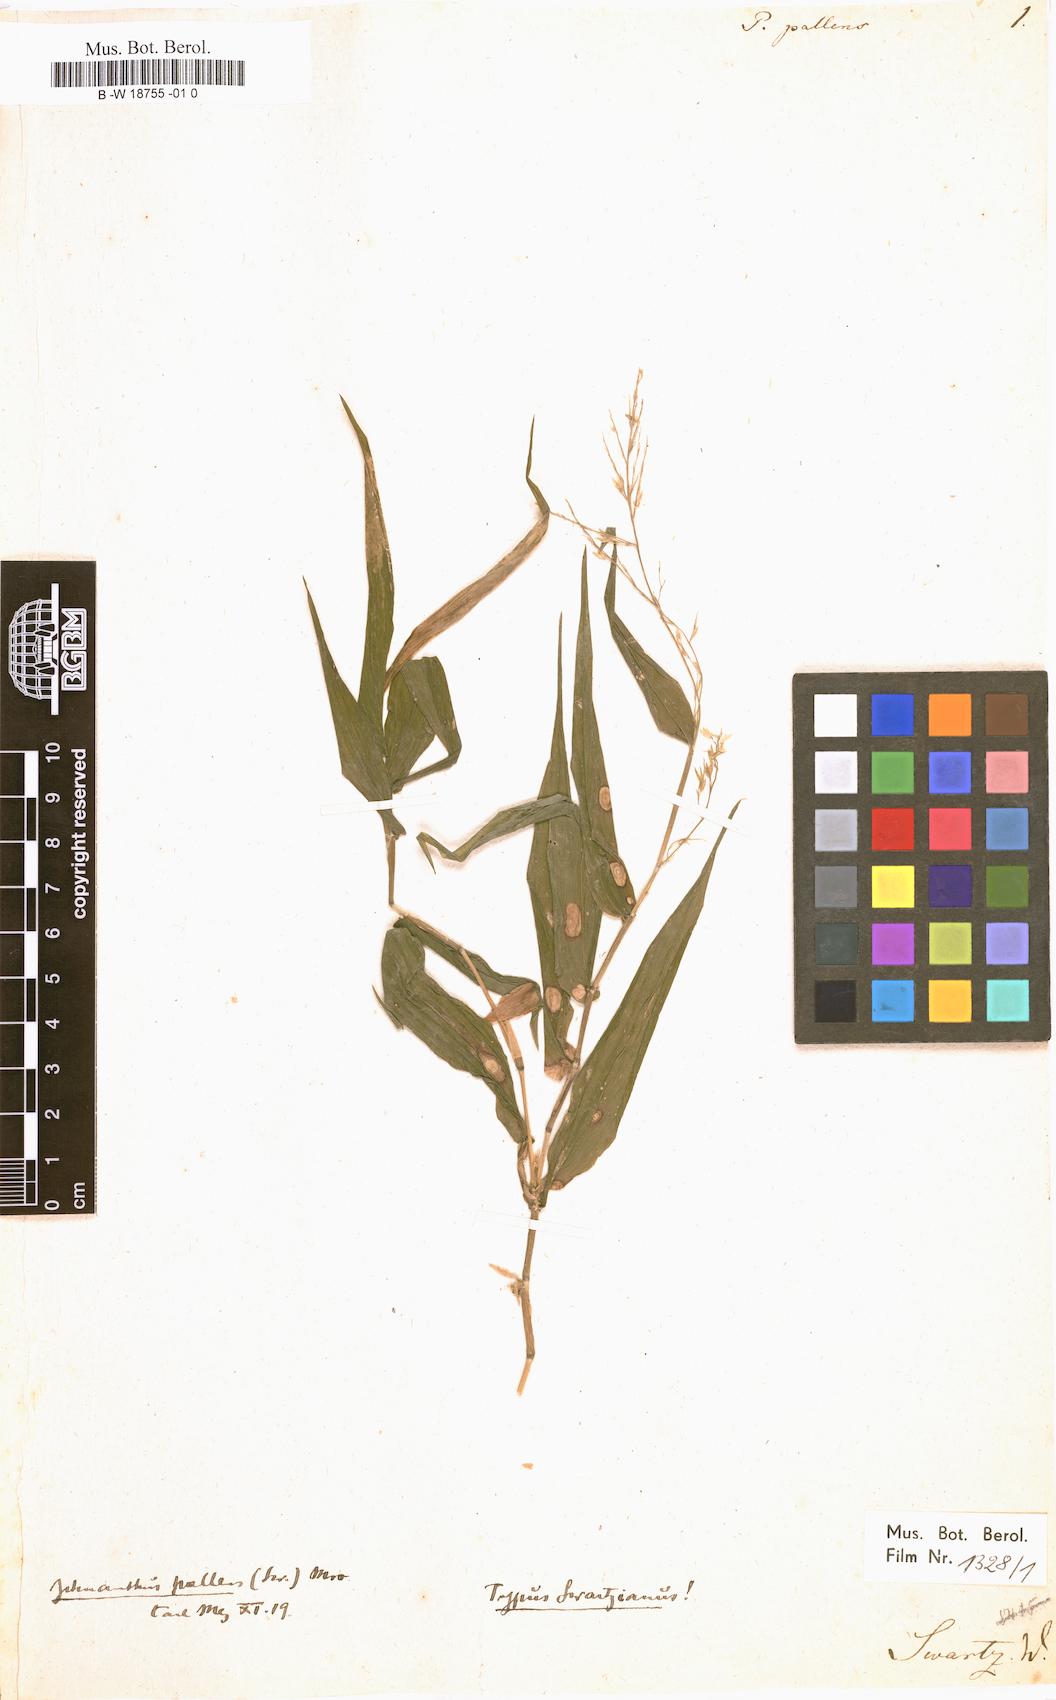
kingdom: Plantae
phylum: Tracheophyta
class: Liliopsida
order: Poales
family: Poaceae
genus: Ichnanthus
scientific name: Ichnanthus pallens
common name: Water grass
